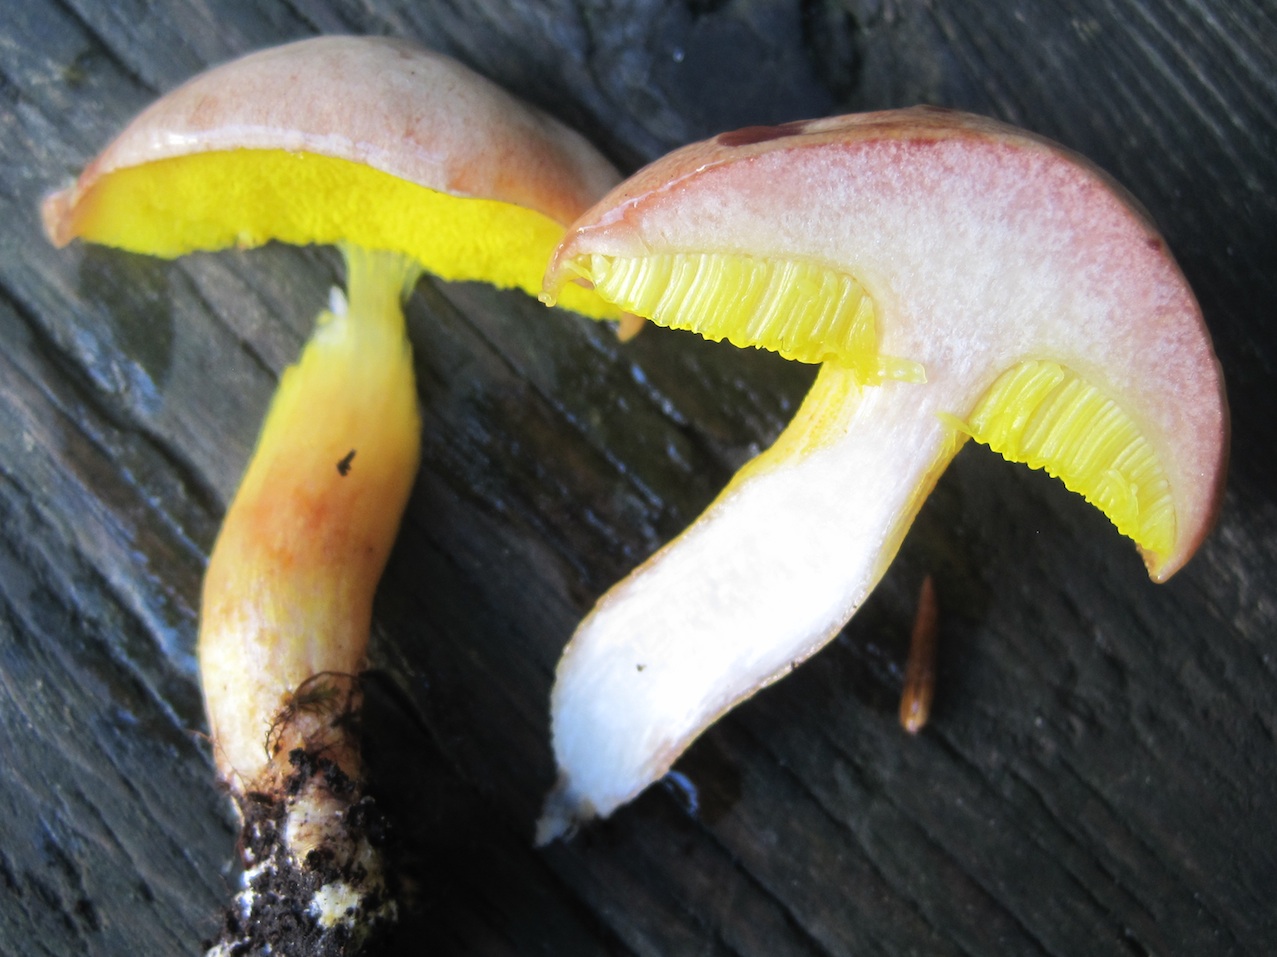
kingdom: Fungi
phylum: Basidiomycota
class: Agaricomycetes
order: Boletales
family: Boletaceae
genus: Aureoboletus
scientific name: Aureoboletus gentilis
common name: guldrørhat
